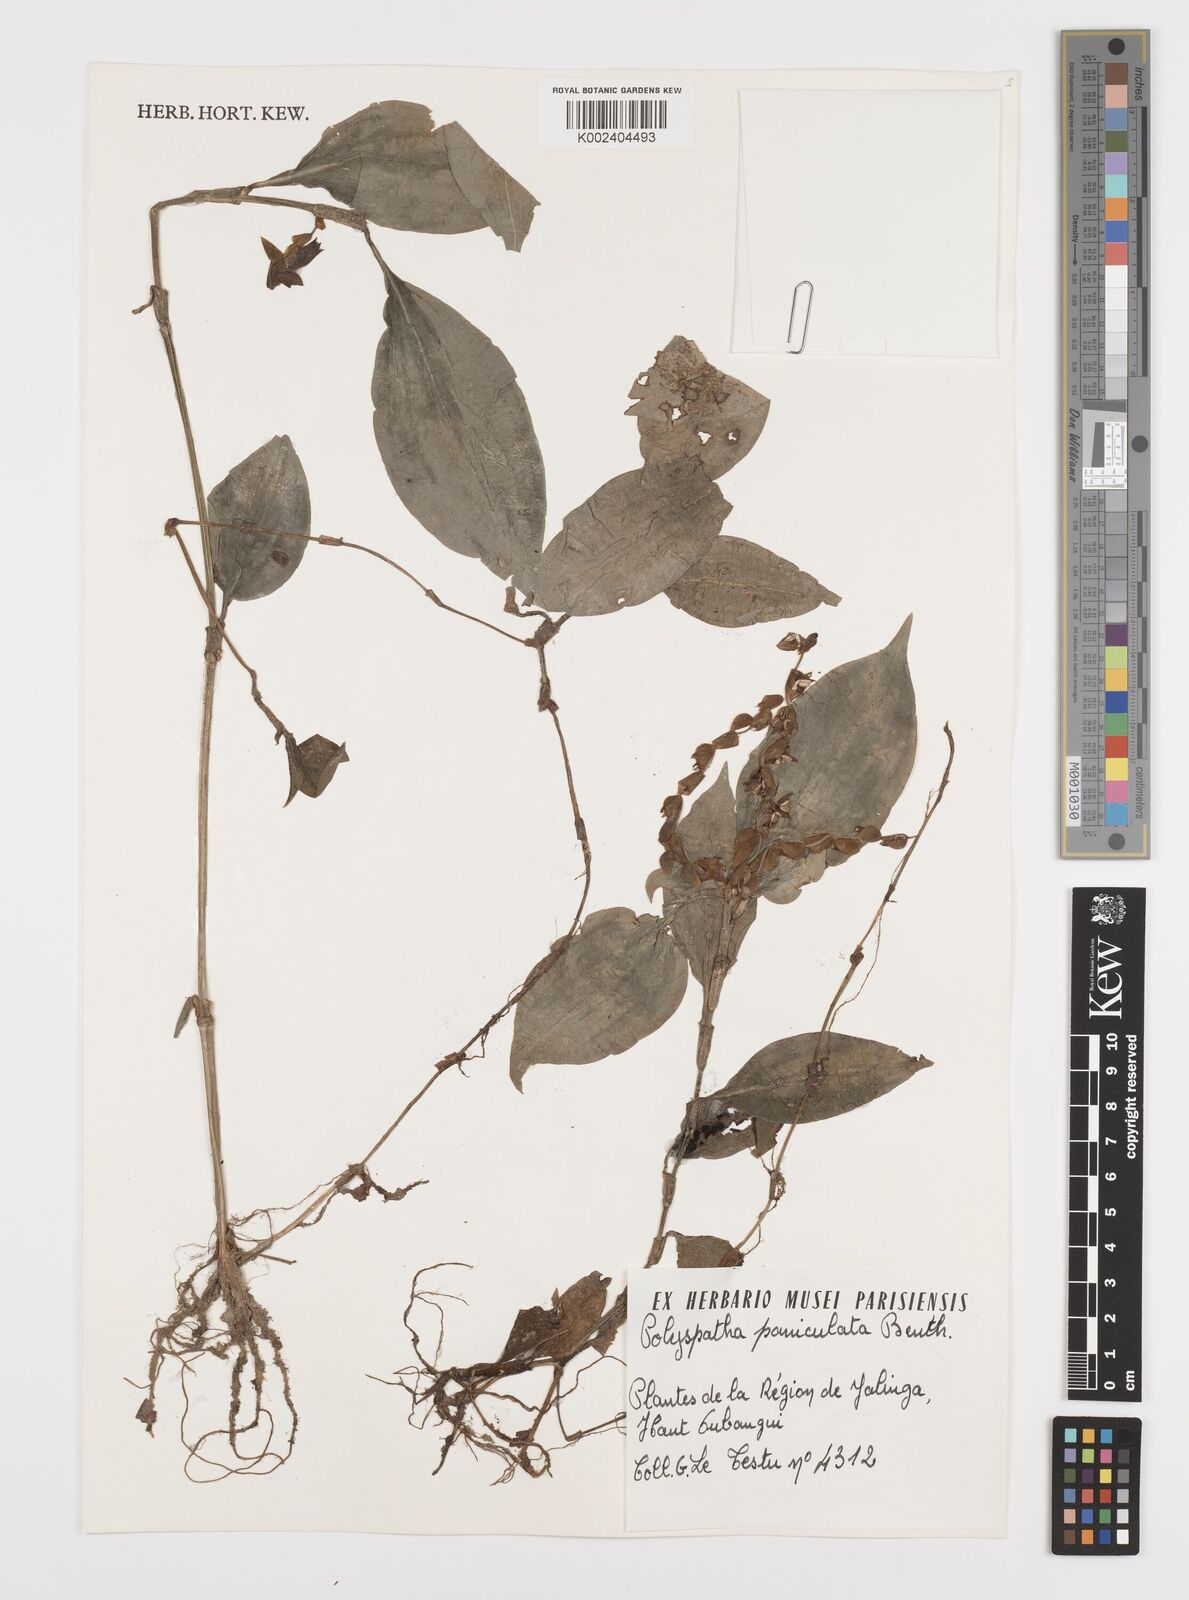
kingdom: Plantae
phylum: Tracheophyta
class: Liliopsida
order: Commelinales
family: Commelinaceae
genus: Polyspatha
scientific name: Polyspatha paniculata
